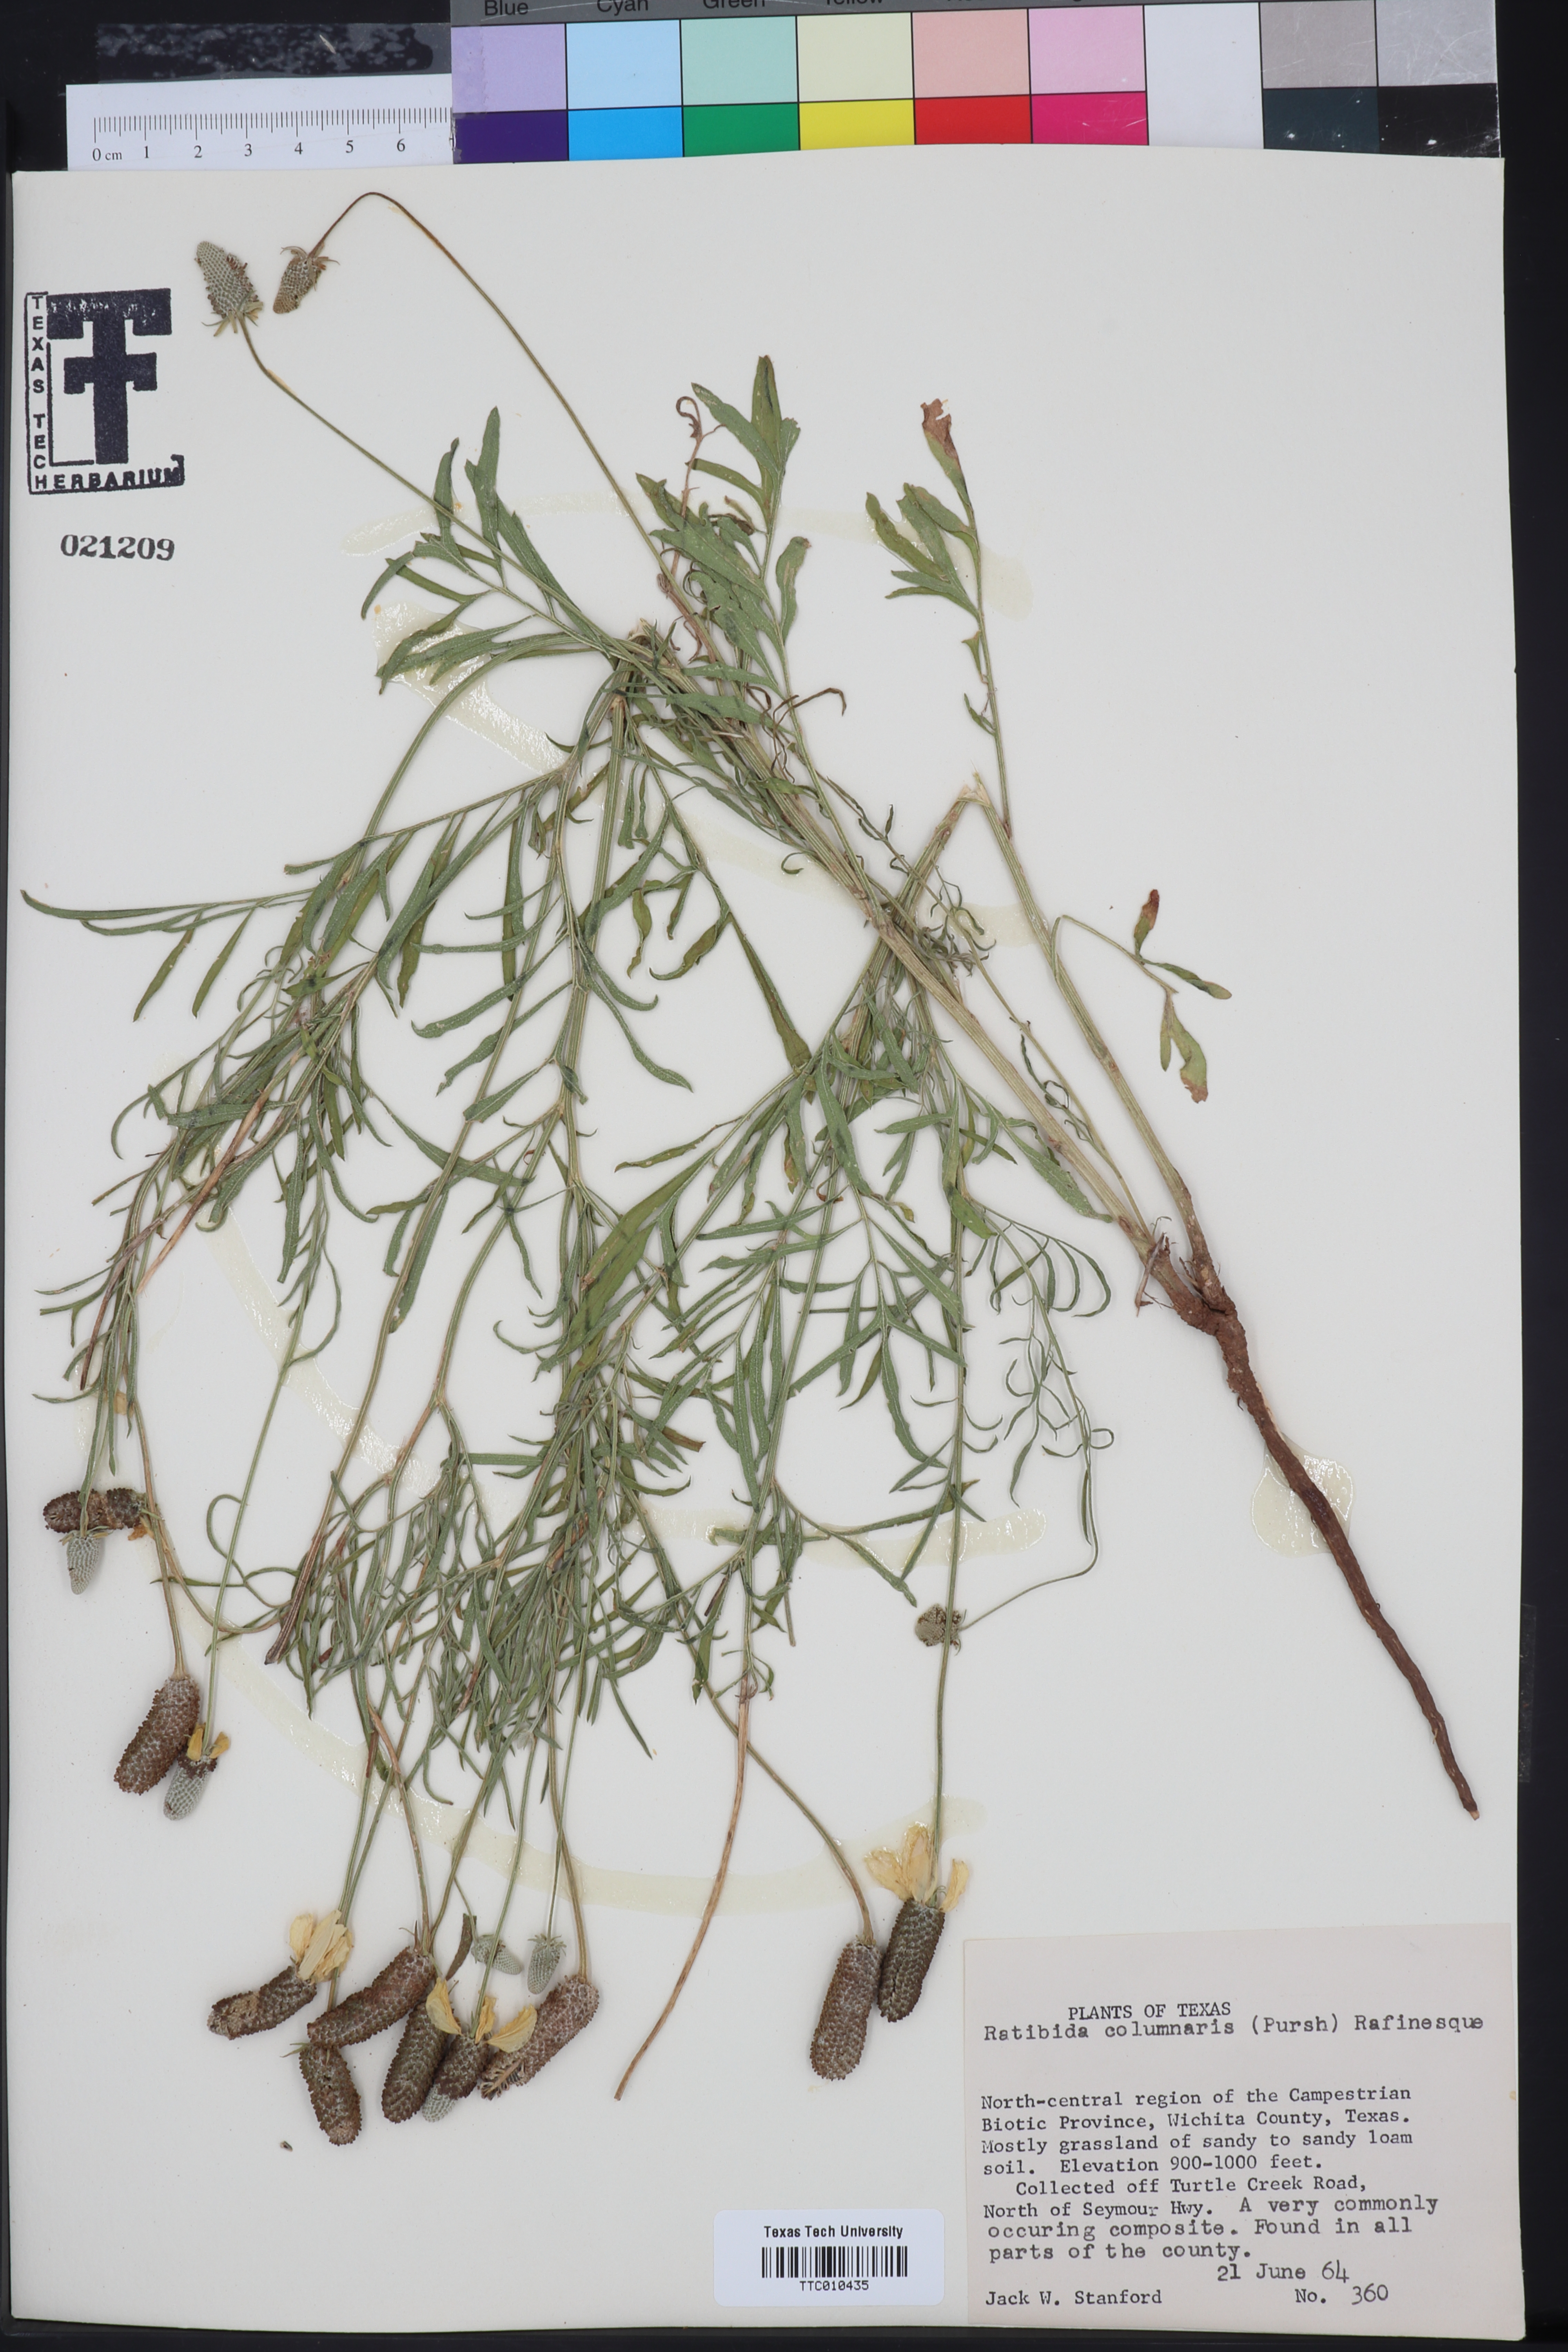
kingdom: Plantae
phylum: Tracheophyta
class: Magnoliopsida
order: Asterales
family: Asteraceae
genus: Ratibida
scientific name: Ratibida columnifera
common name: Prairie coneflower
